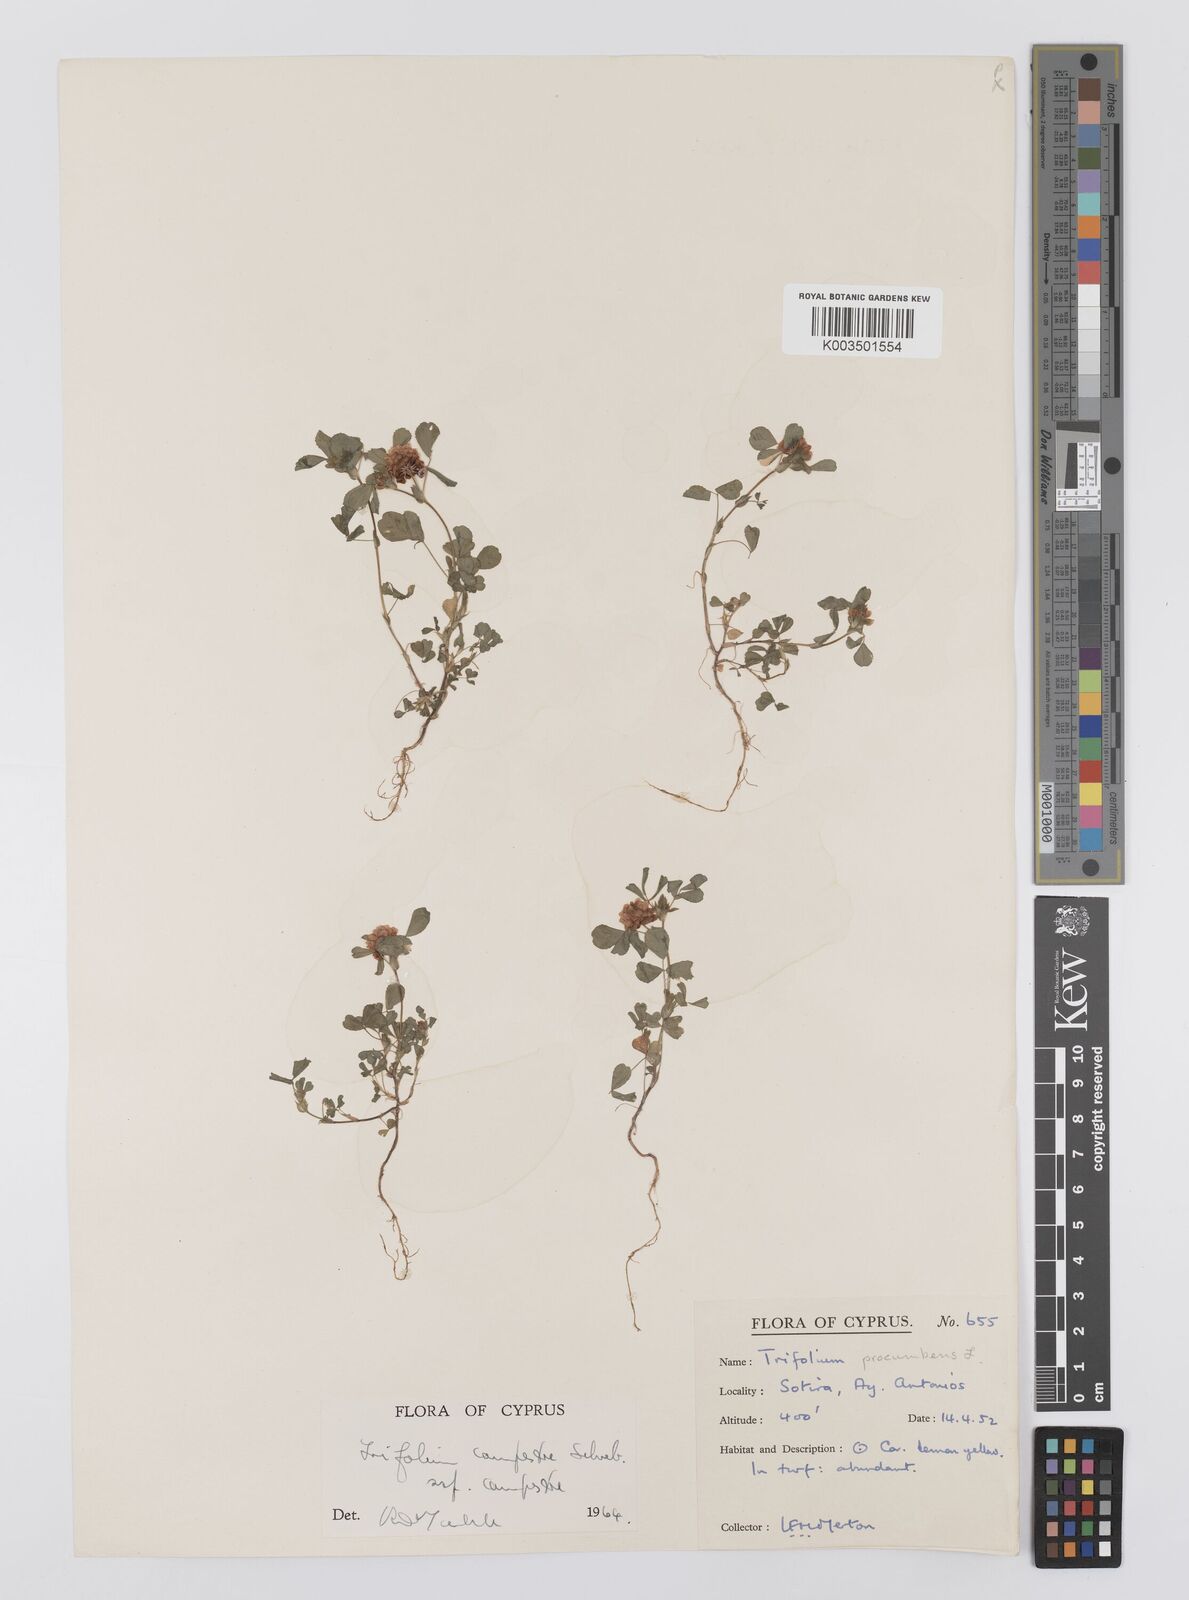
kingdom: Plantae
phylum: Tracheophyta
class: Magnoliopsida
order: Fabales
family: Fabaceae
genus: Trifolium
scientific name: Trifolium campestre
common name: Field clover
